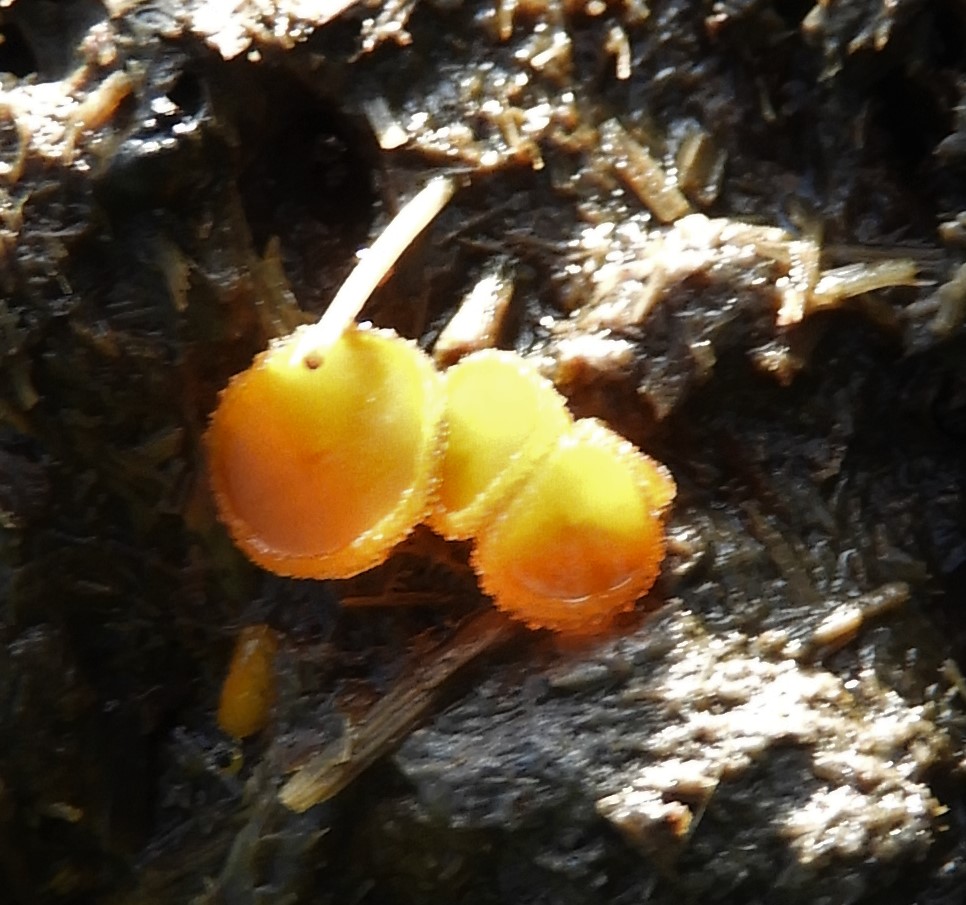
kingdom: Fungi
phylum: Ascomycota
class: Pezizomycetes
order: Pezizales
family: Pyronemataceae
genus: Cheilymenia
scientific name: Cheilymenia granulata
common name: møgbæger
